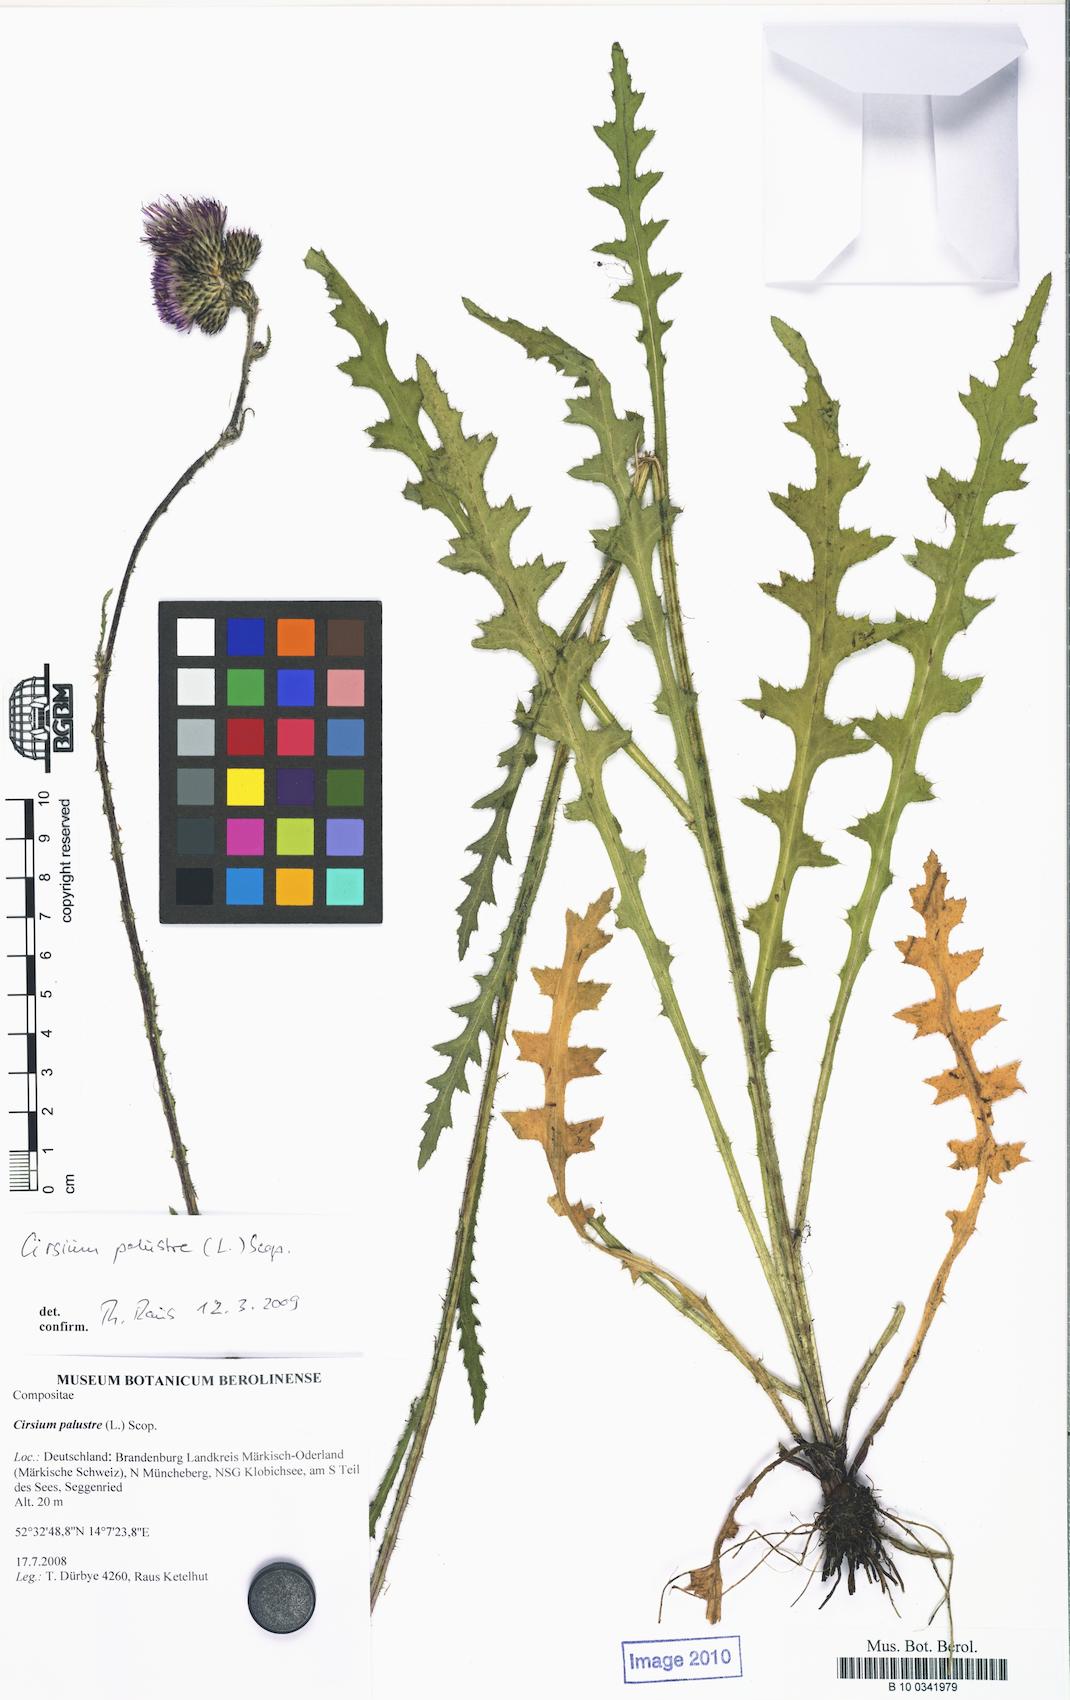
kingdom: Plantae
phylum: Tracheophyta
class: Magnoliopsida
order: Asterales
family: Asteraceae
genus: Cirsium
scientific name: Cirsium palustre
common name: Marsh thistle
